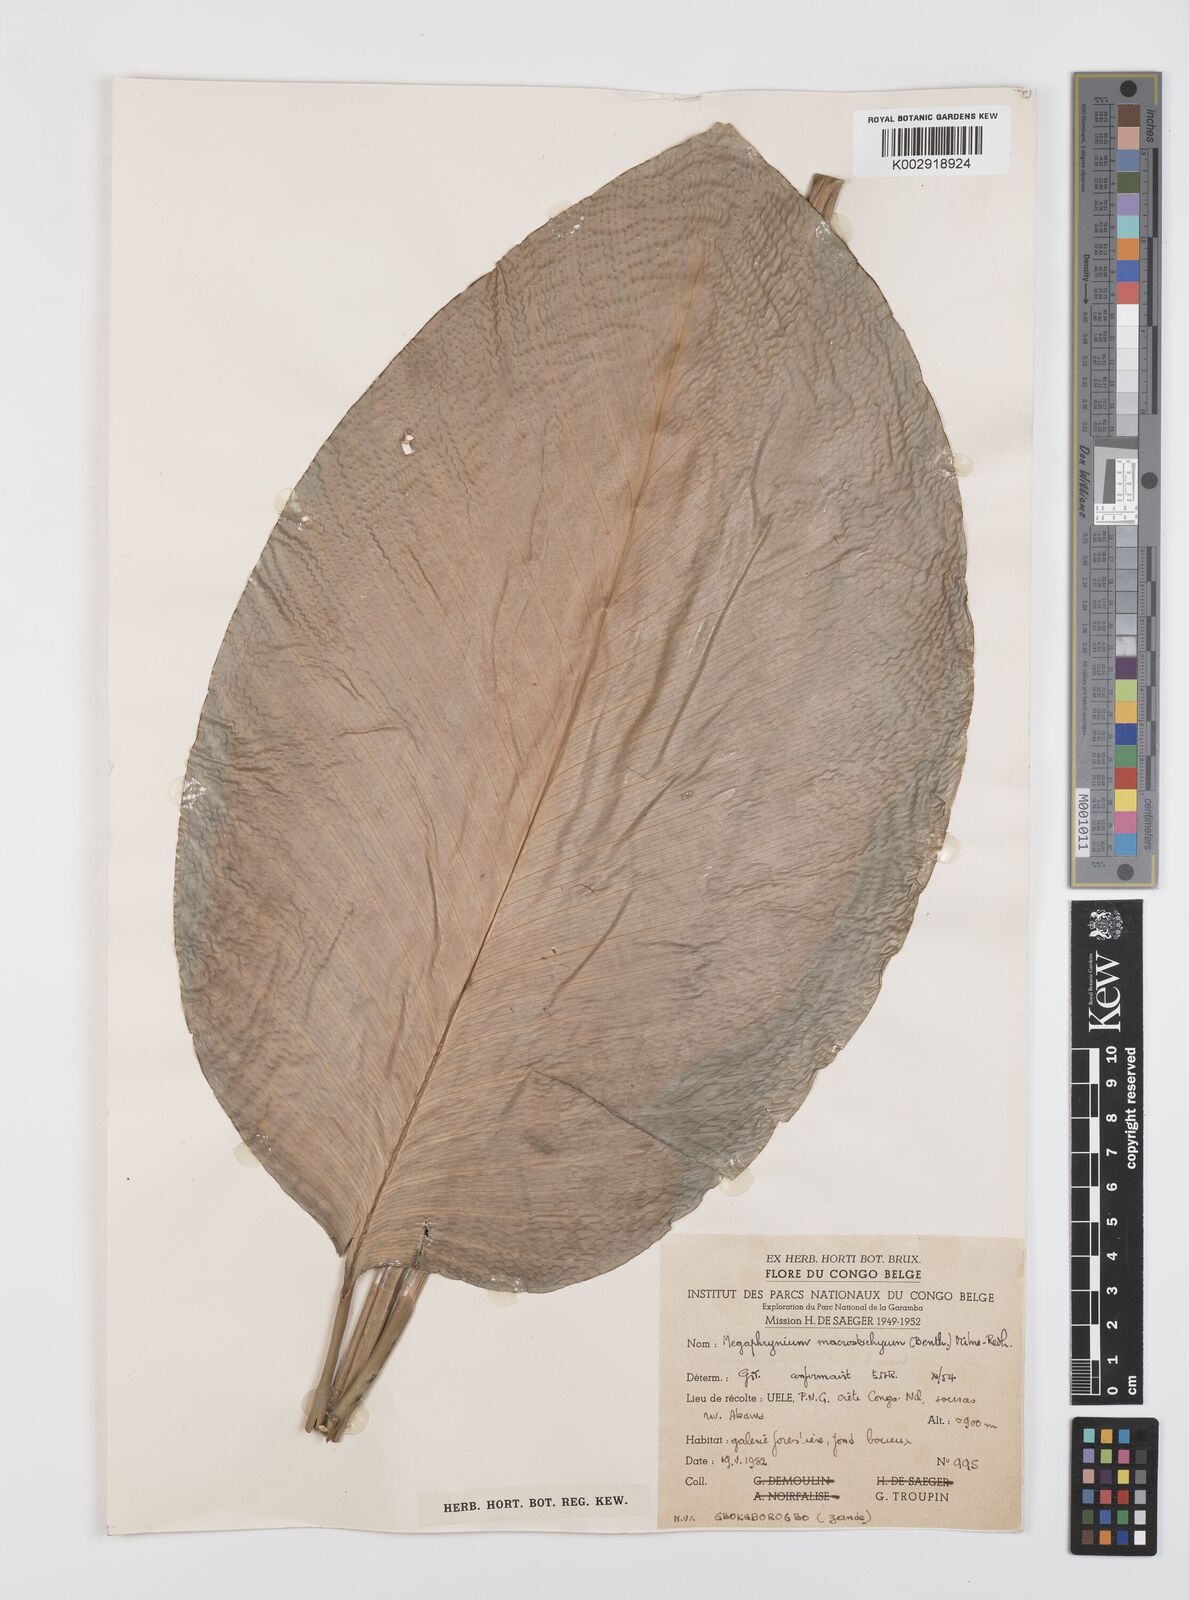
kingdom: Plantae
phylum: Tracheophyta
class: Liliopsida
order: Zingiberales
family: Marantaceae
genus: Megaphrynium
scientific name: Megaphrynium macrostachyum
